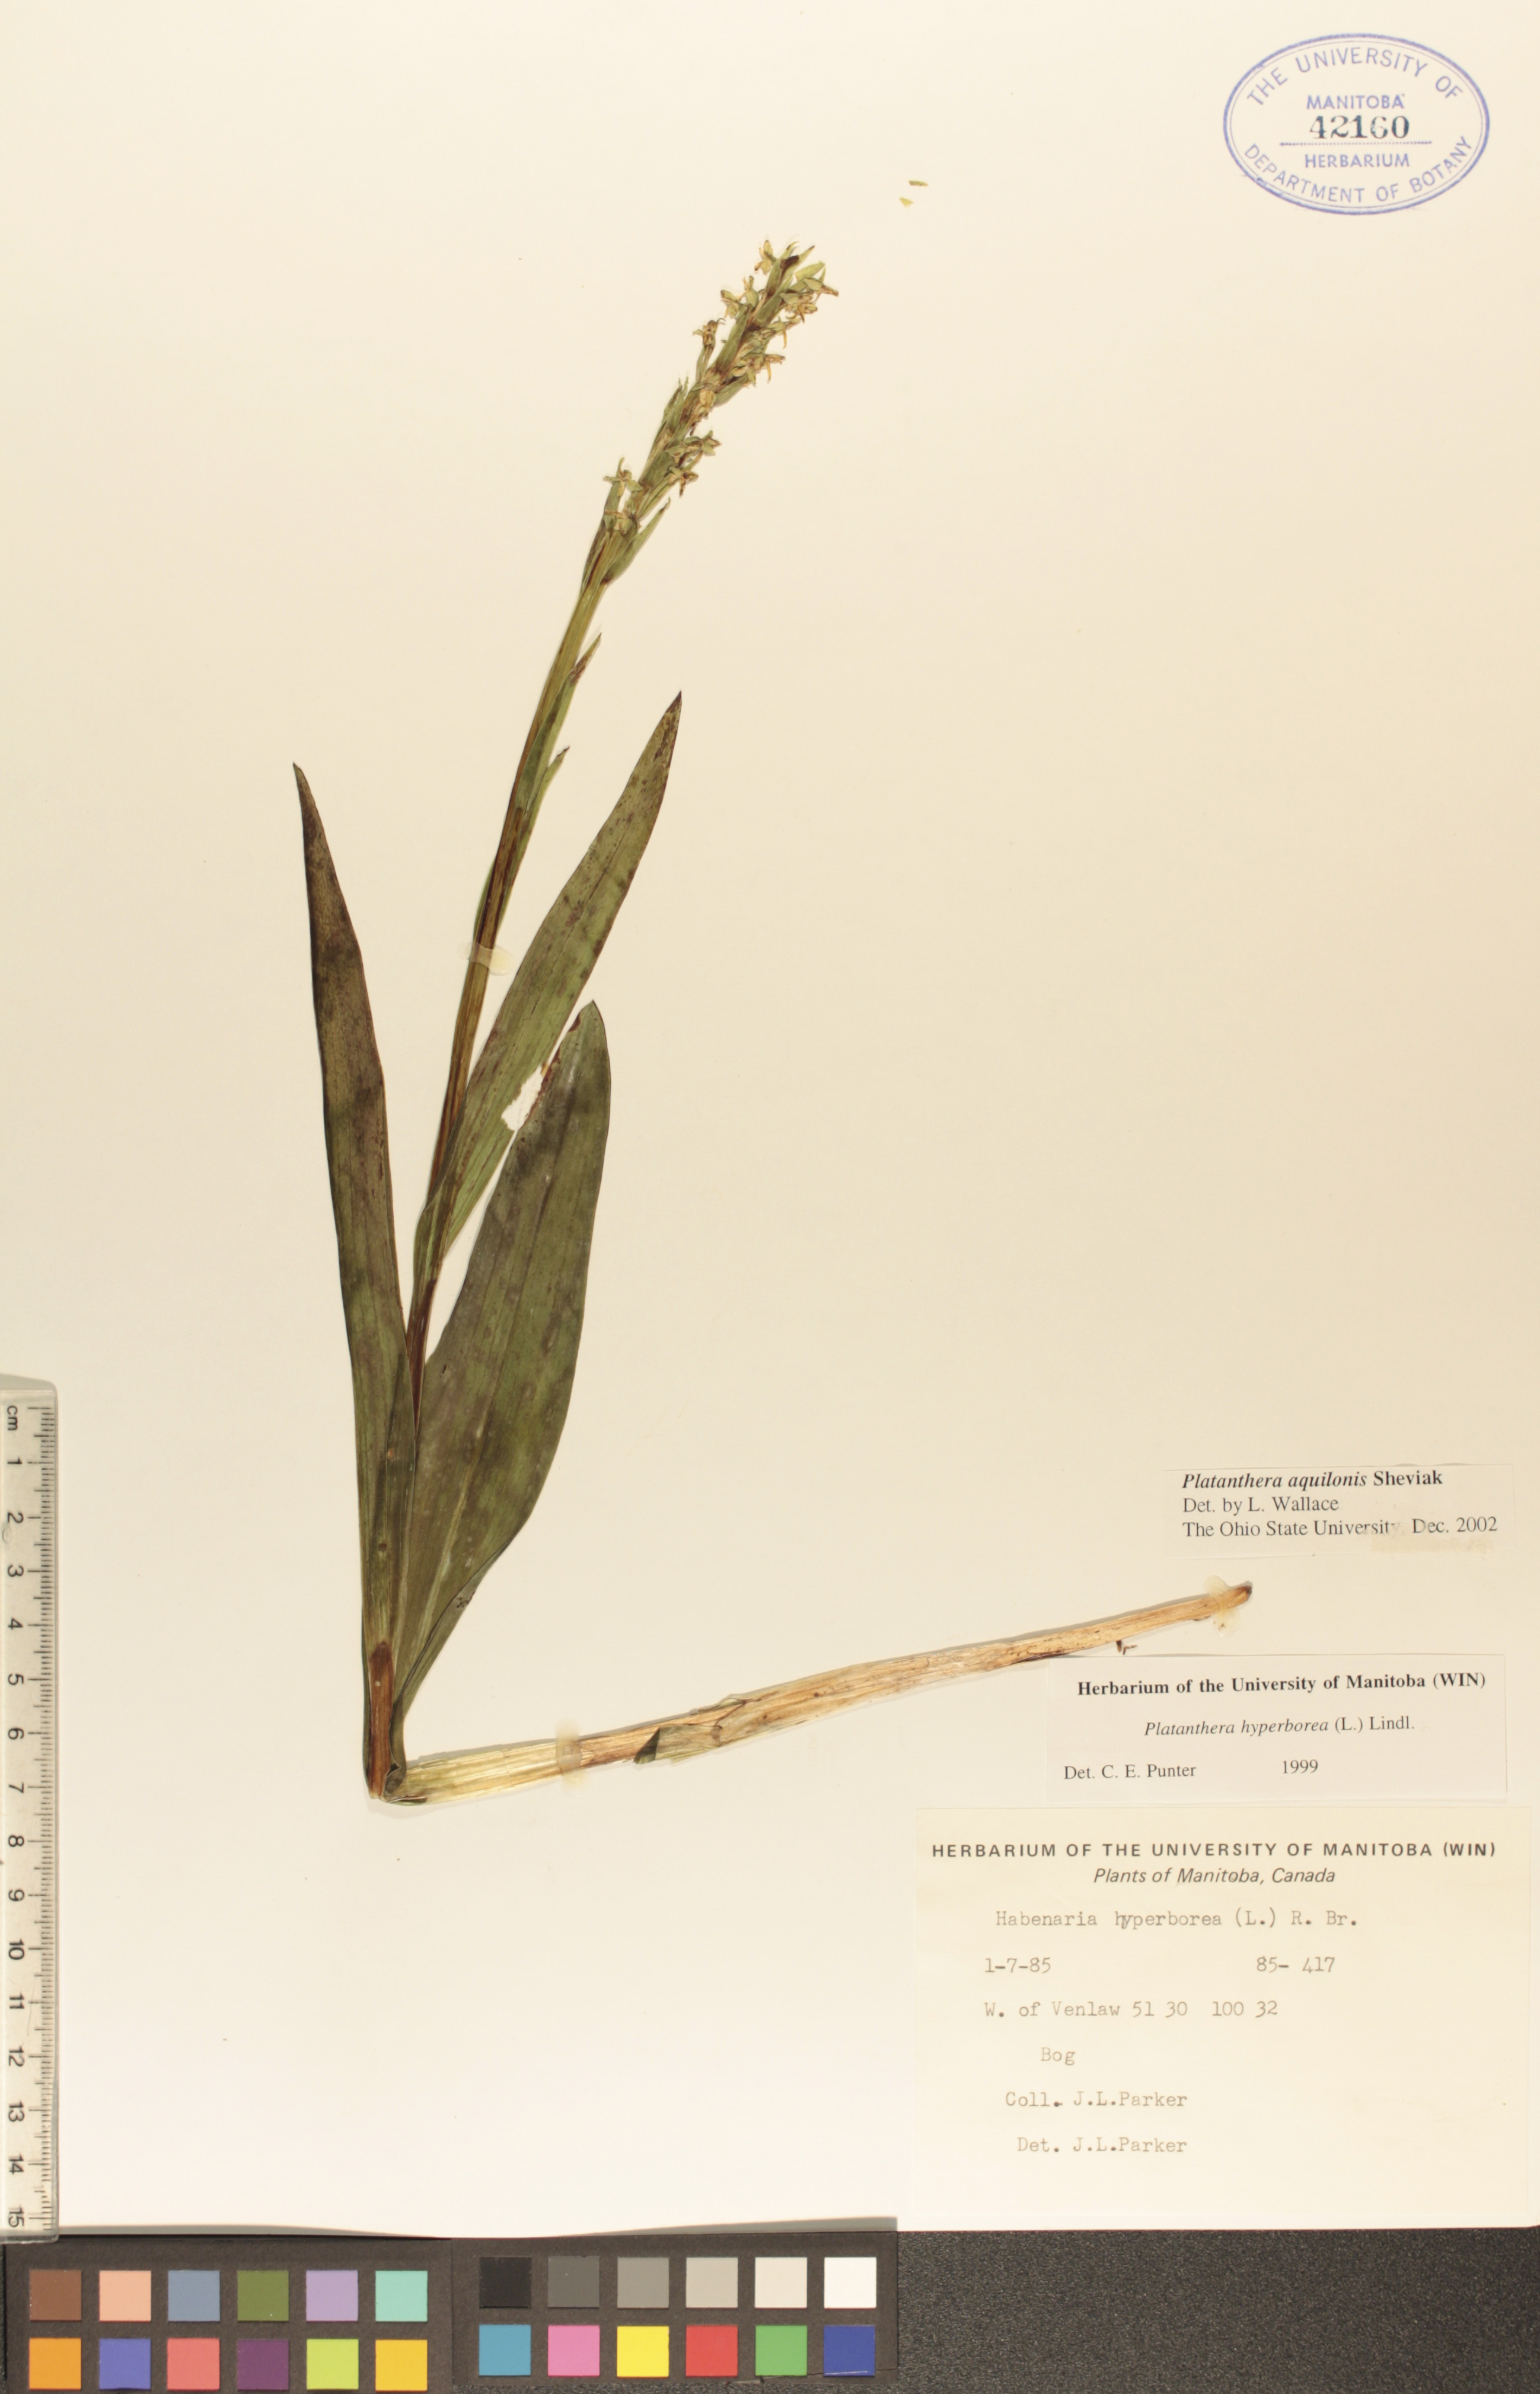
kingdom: Plantae
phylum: Tracheophyta
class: Liliopsida
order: Asparagales
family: Orchidaceae
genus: Platanthera
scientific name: Platanthera aquilonis
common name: Northern green orchid
